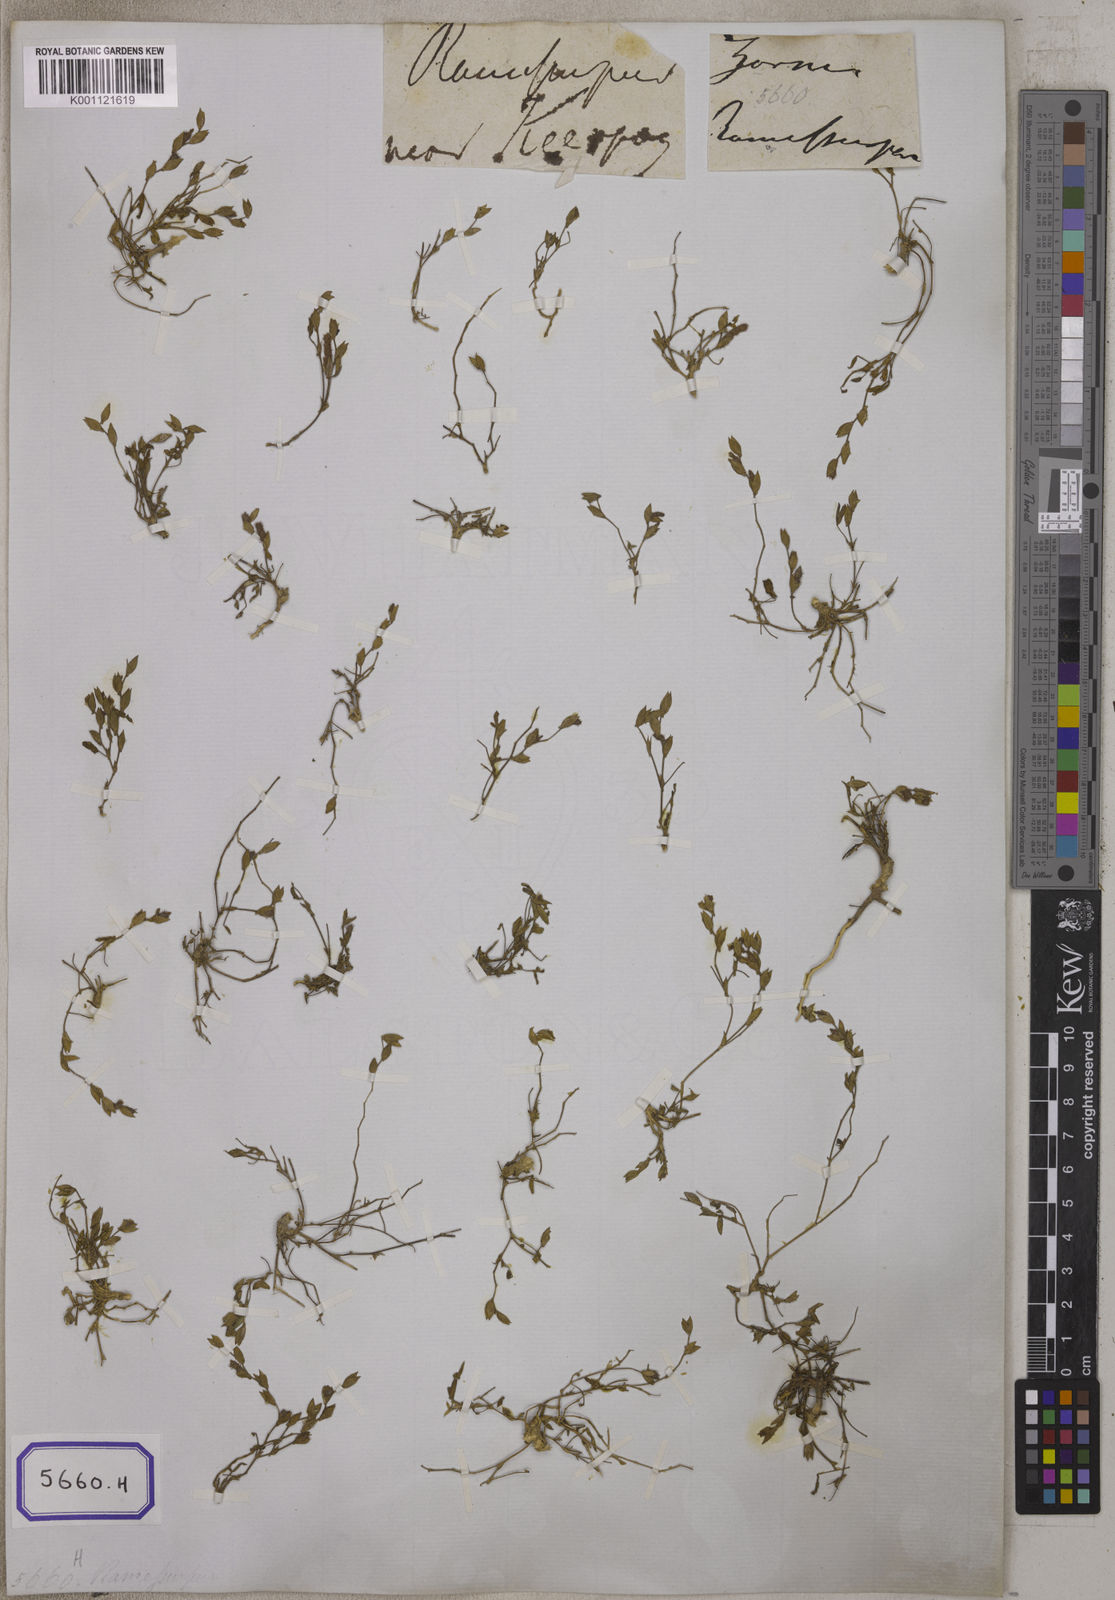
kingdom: Plantae
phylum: Tracheophyta
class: Magnoliopsida
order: Fabales
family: Fabaceae
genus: Zornia
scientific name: Zornia gibbosa
